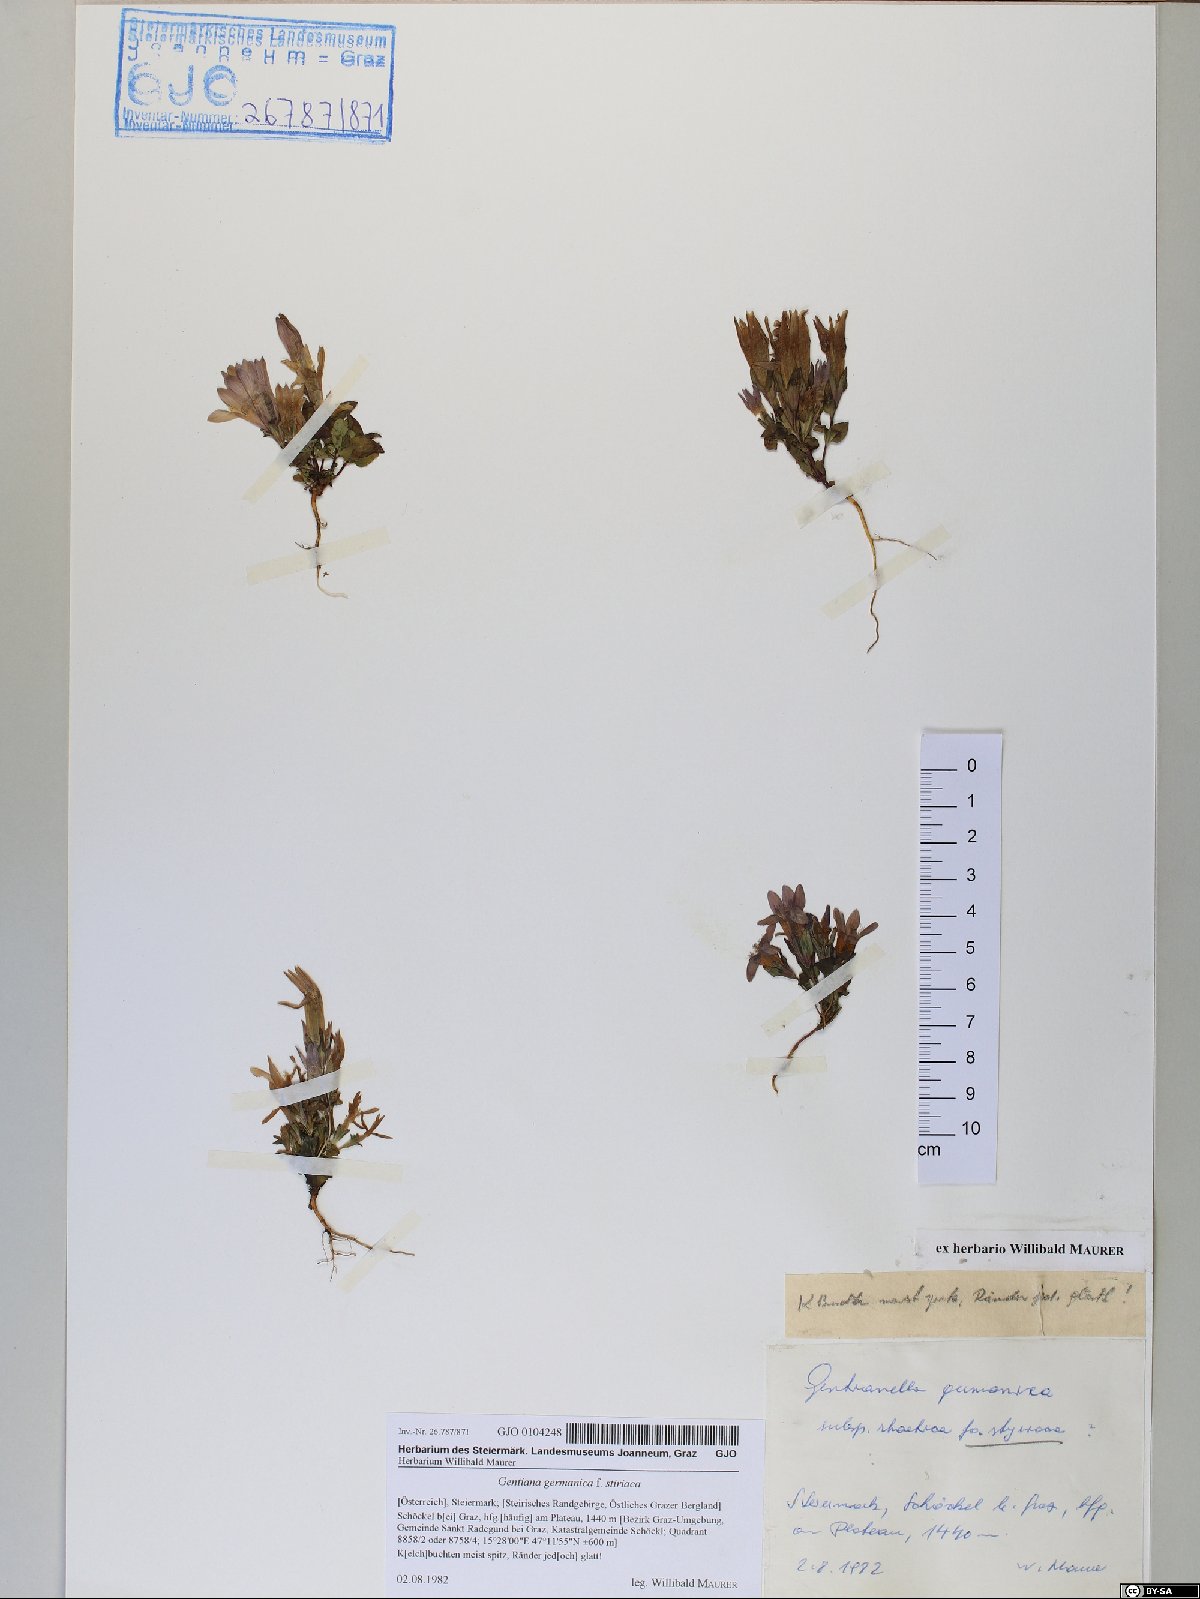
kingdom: Plantae
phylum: Tracheophyta
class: Magnoliopsida
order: Gentianales
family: Gentianaceae
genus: Gentianella
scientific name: Gentianella
